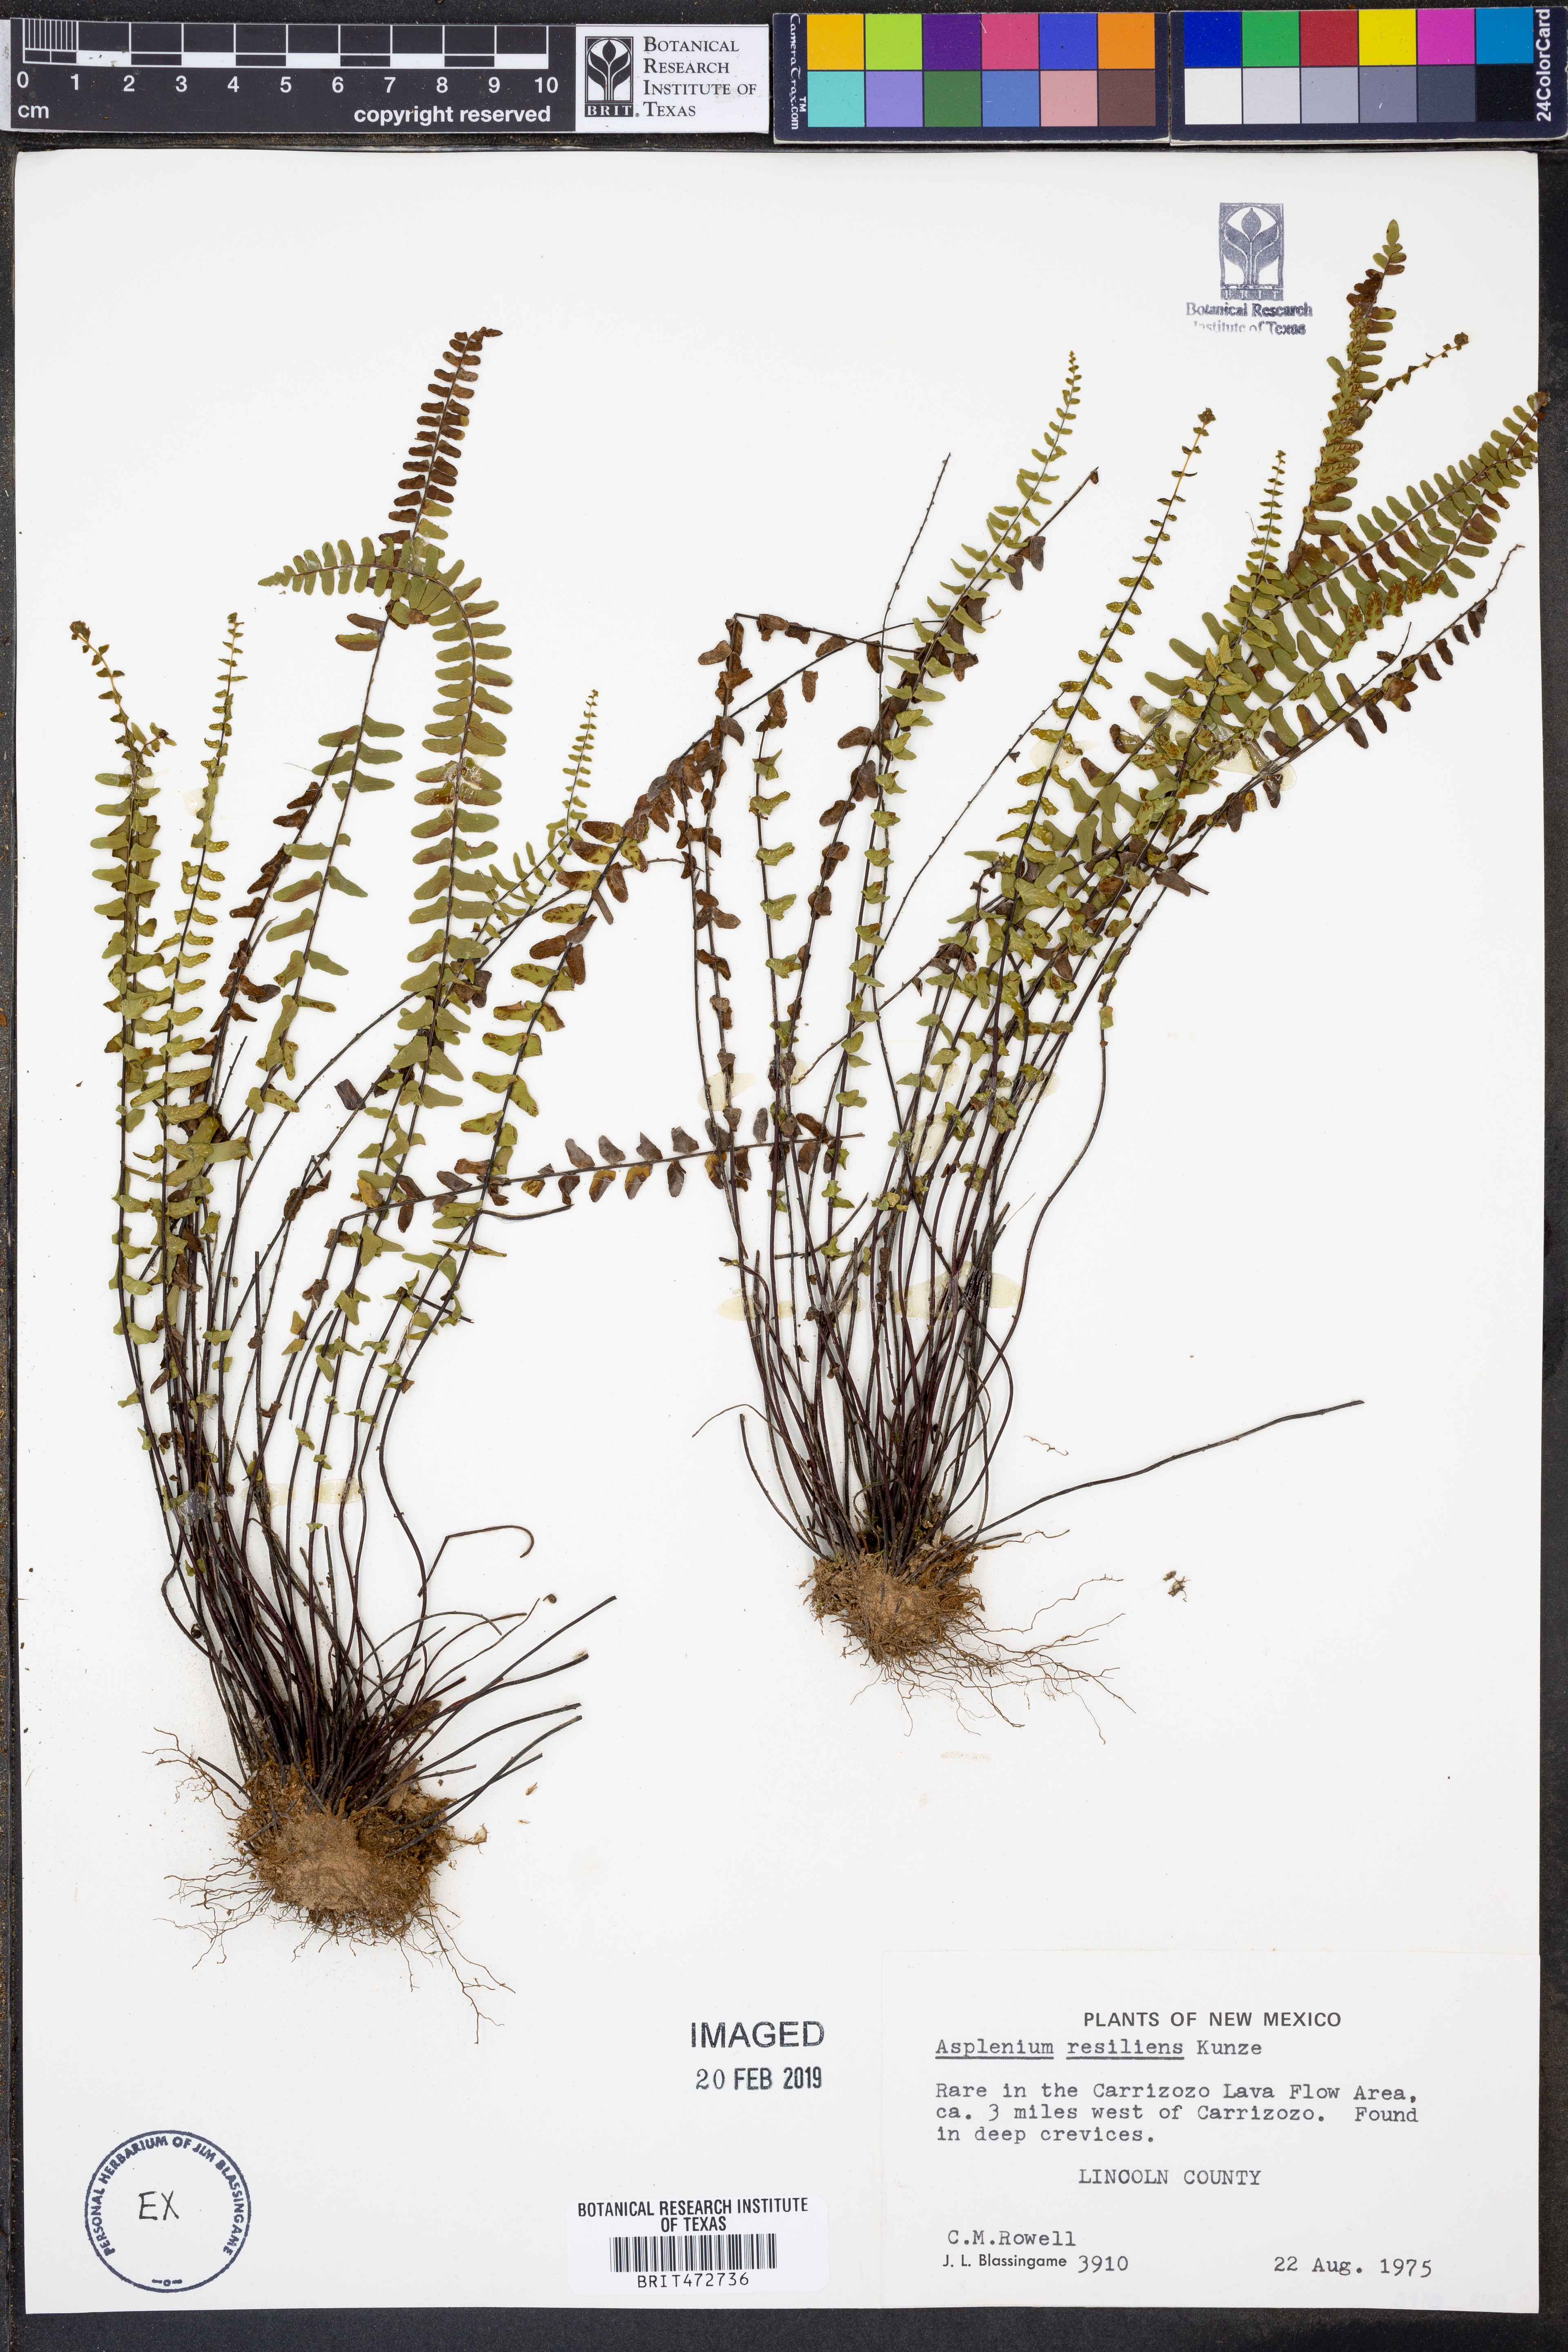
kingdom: Plantae
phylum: Tracheophyta
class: Polypodiopsida
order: Polypodiales
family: Aspleniaceae
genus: Asplenium
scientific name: Asplenium resiliens
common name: Blackstem spleenwort
